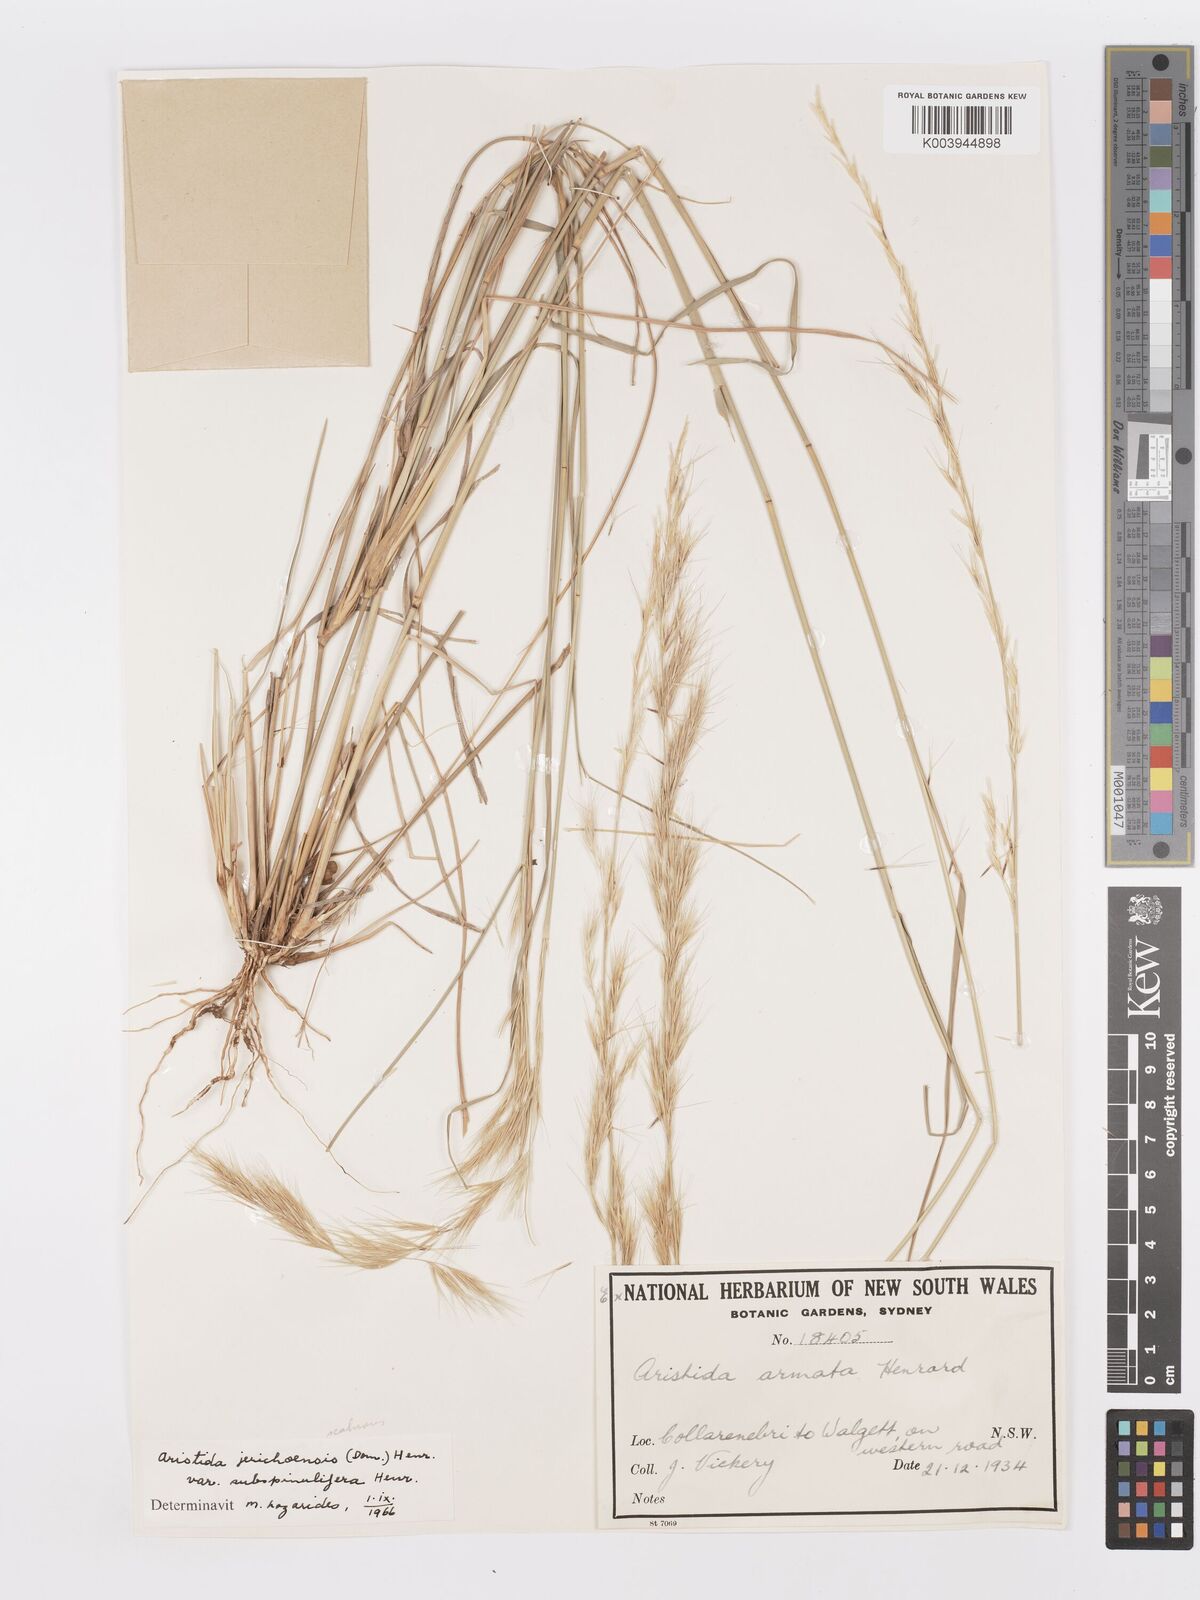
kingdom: Plantae
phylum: Tracheophyta
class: Liliopsida
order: Poales
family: Poaceae
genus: Aristida
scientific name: Aristida jerichoensis
